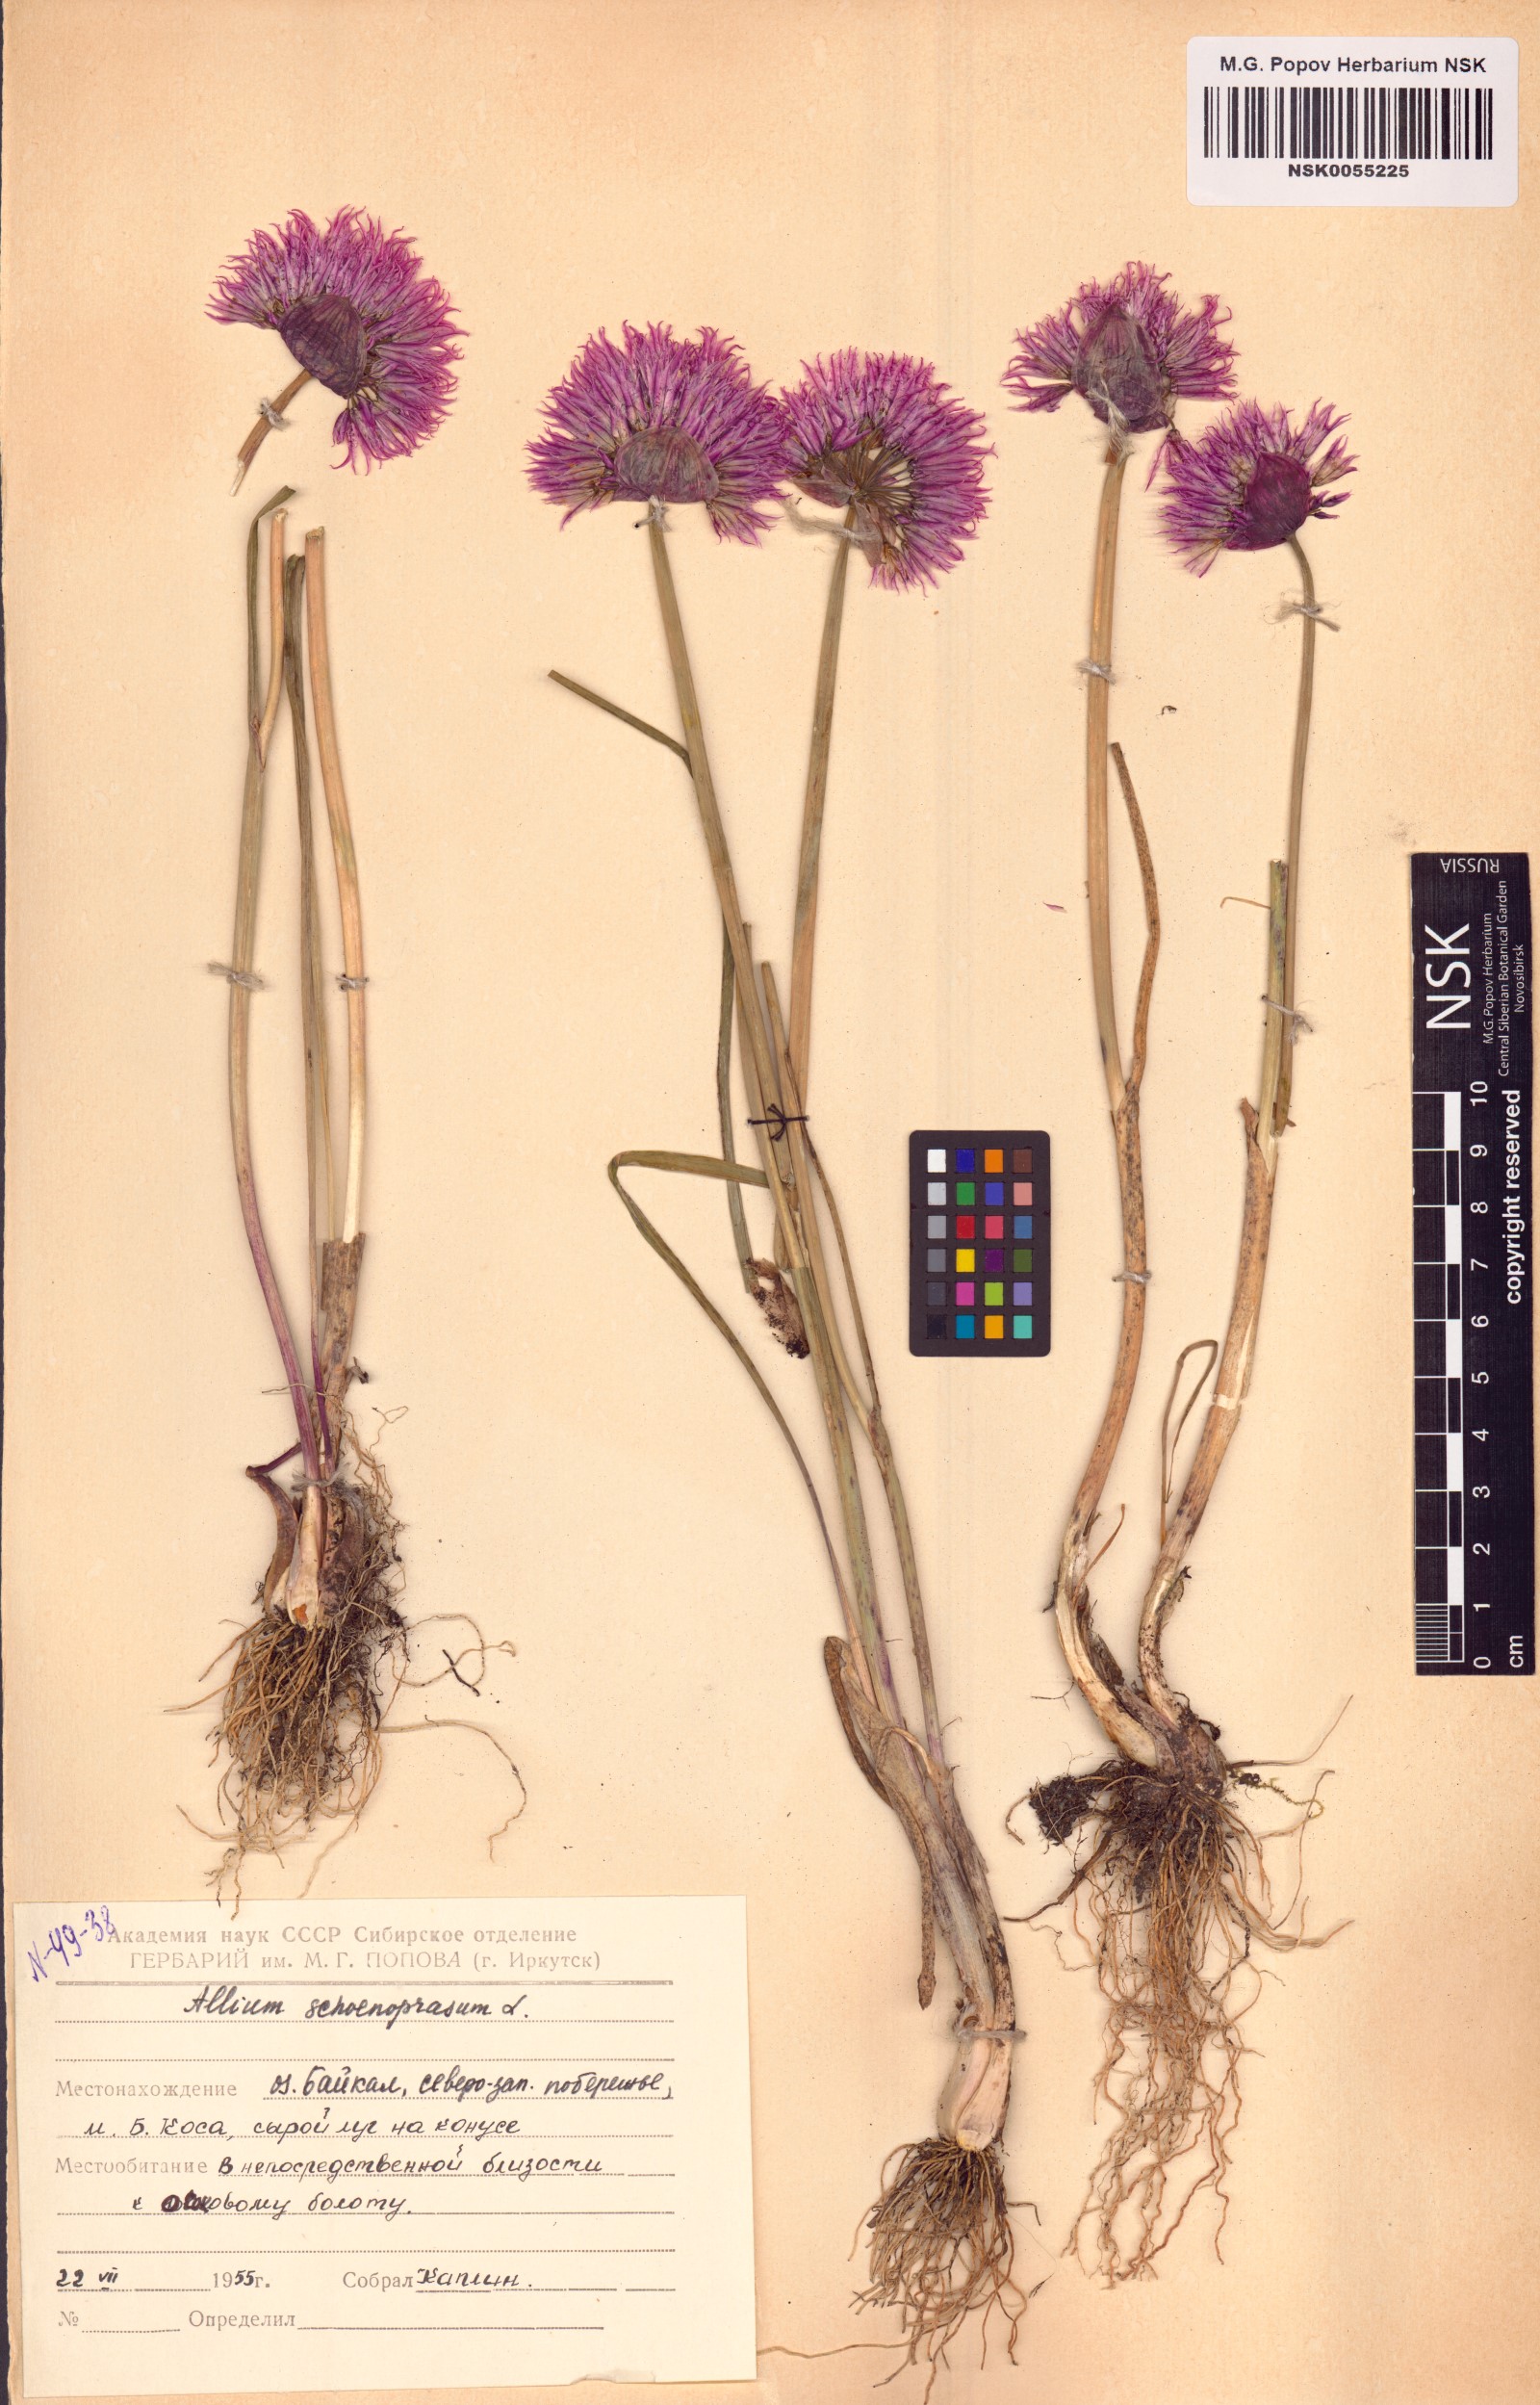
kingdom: Plantae
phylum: Tracheophyta
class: Liliopsida
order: Asparagales
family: Amaryllidaceae
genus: Allium
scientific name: Allium schoenoprasum
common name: Chives
